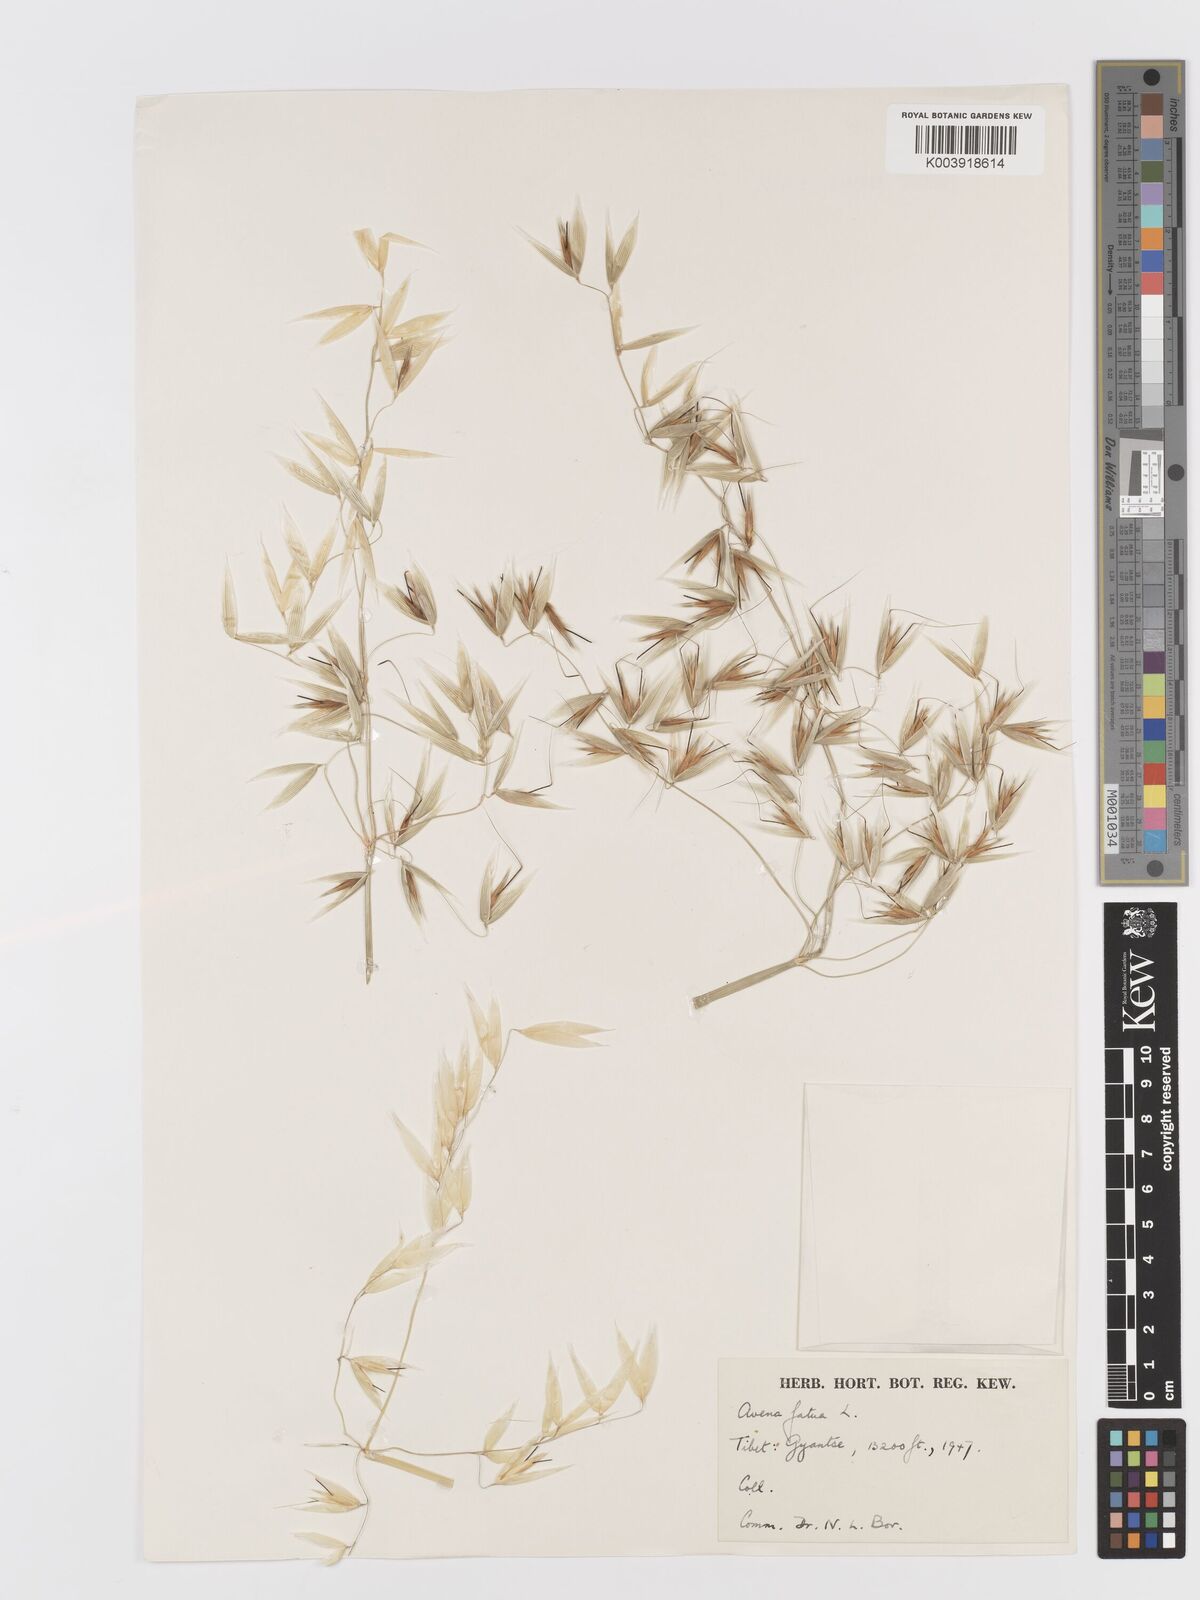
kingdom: Plantae
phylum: Tracheophyta
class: Liliopsida
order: Poales
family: Poaceae
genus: Avena
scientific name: Avena fatua
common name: Wild oat
